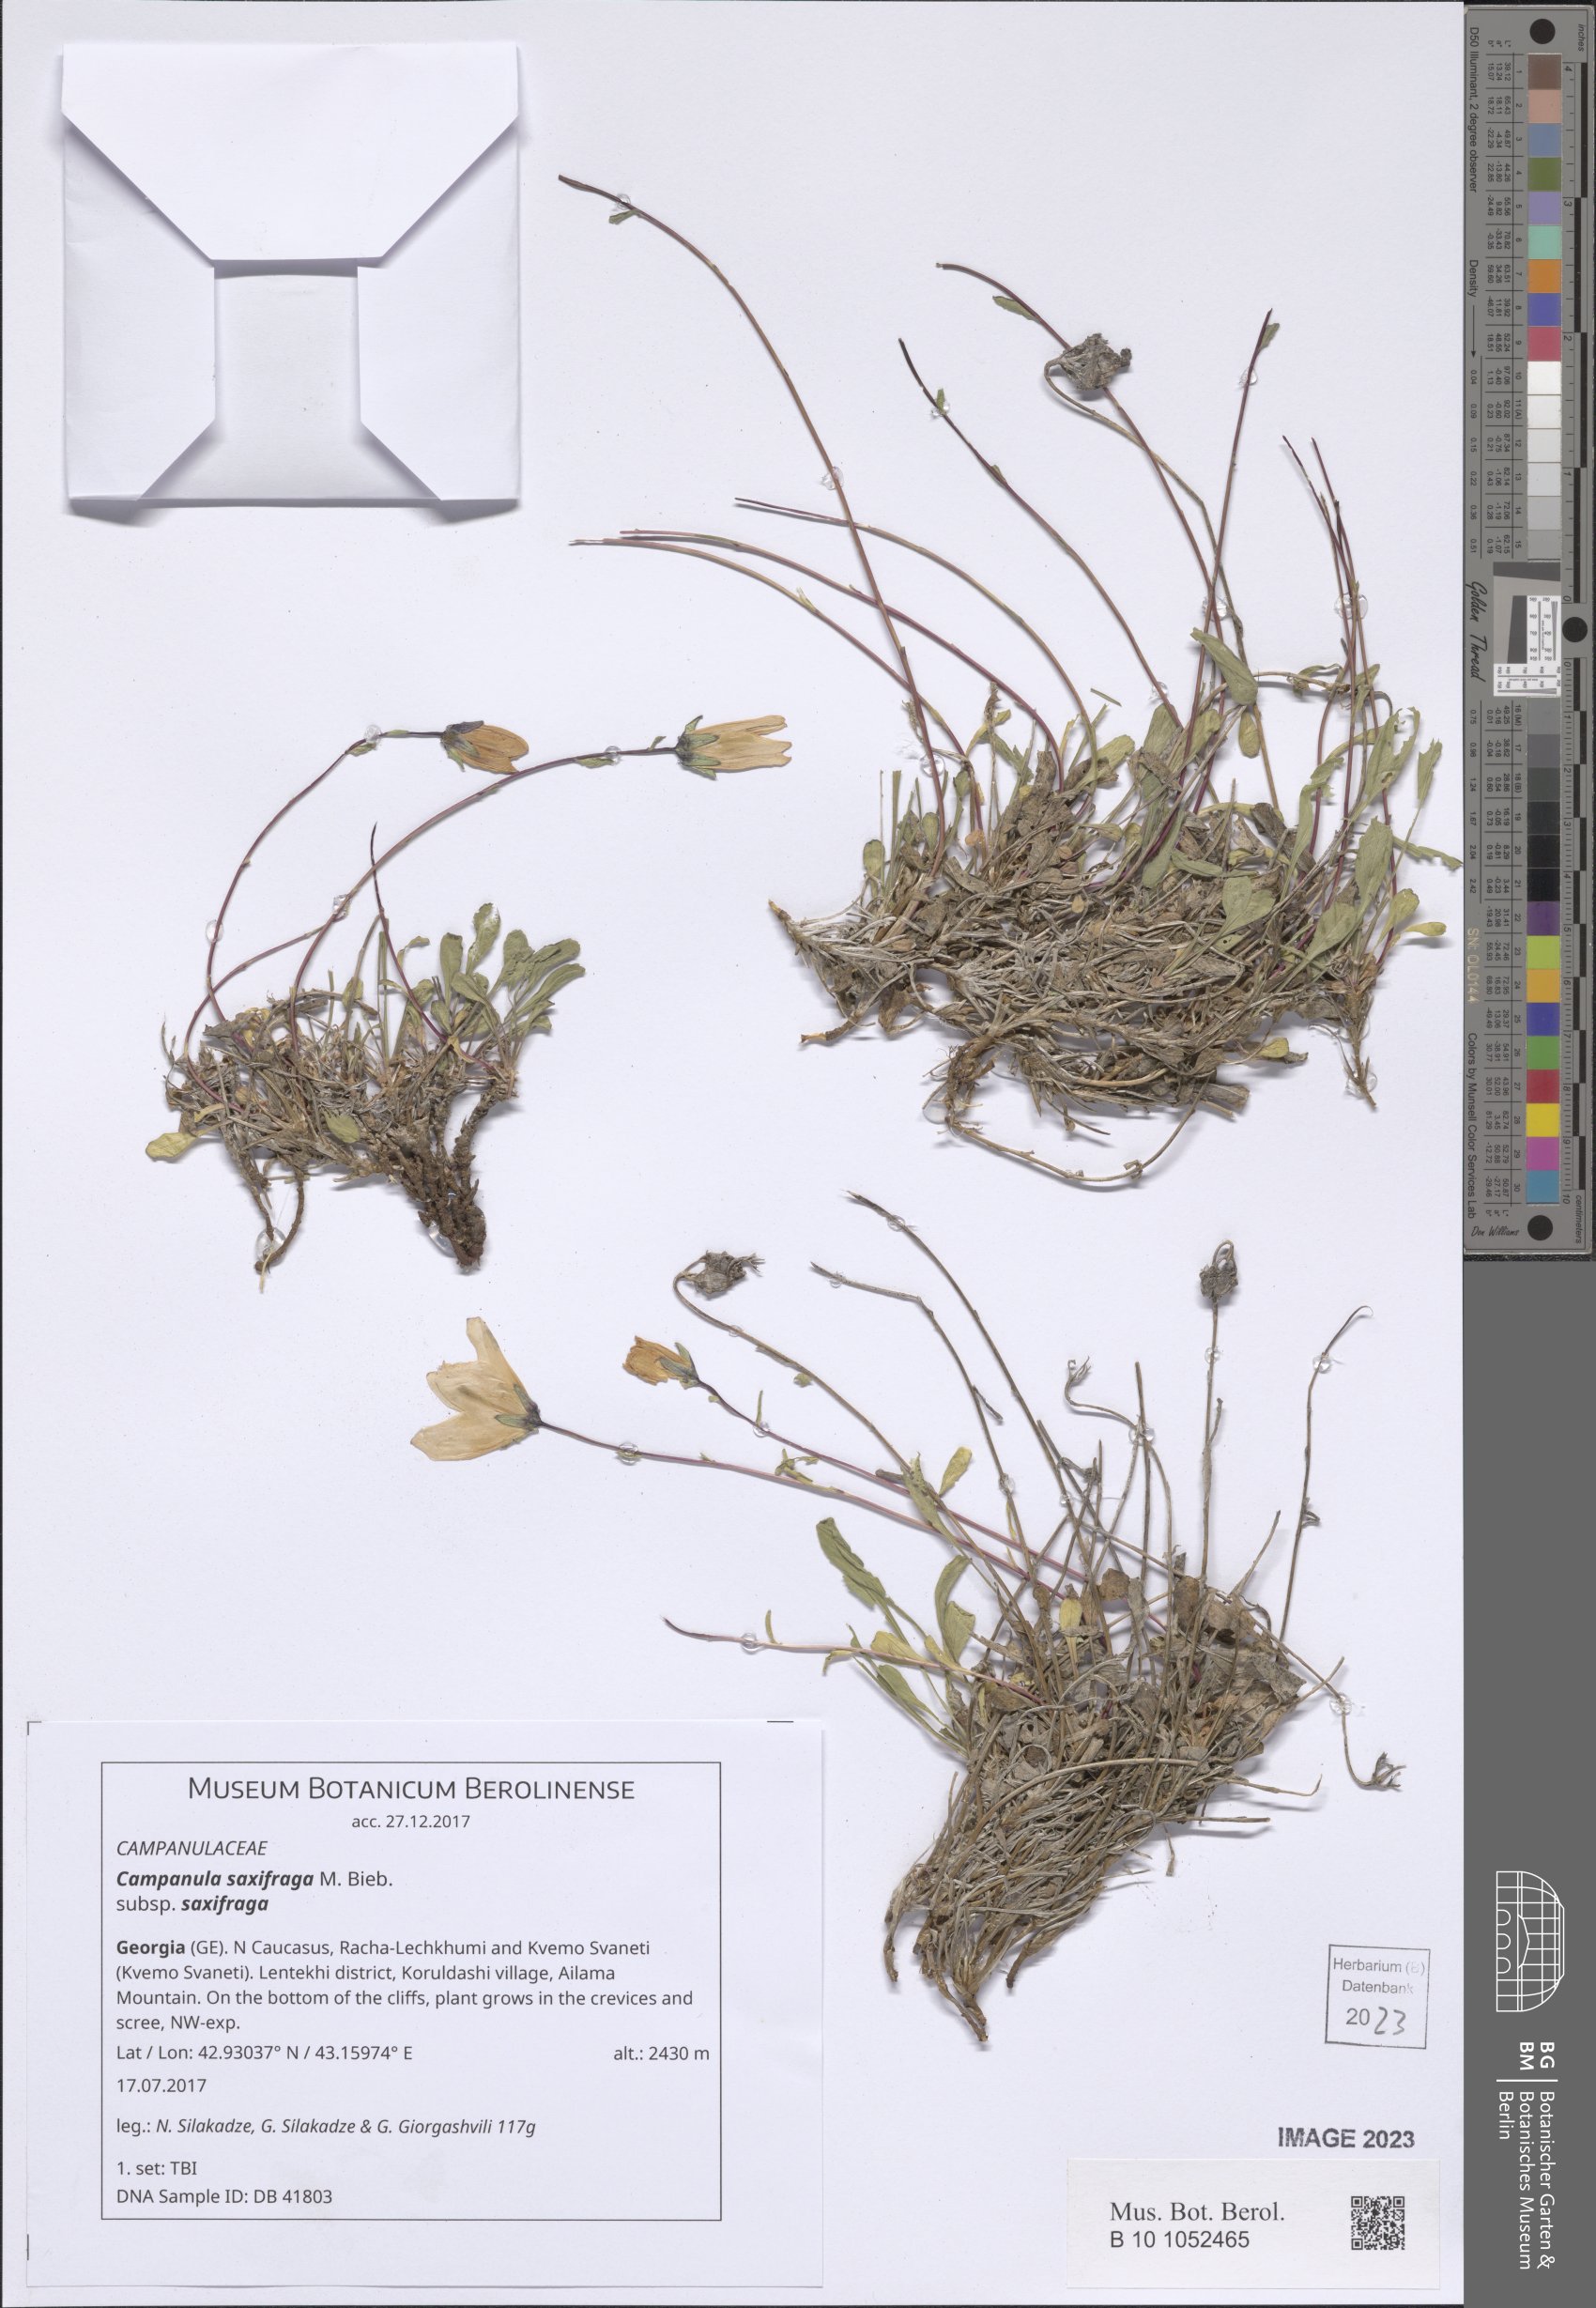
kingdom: Plantae
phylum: Tracheophyta
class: Magnoliopsida
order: Asterales
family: Campanulaceae
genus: Campanula
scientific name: Campanula saxifraga
